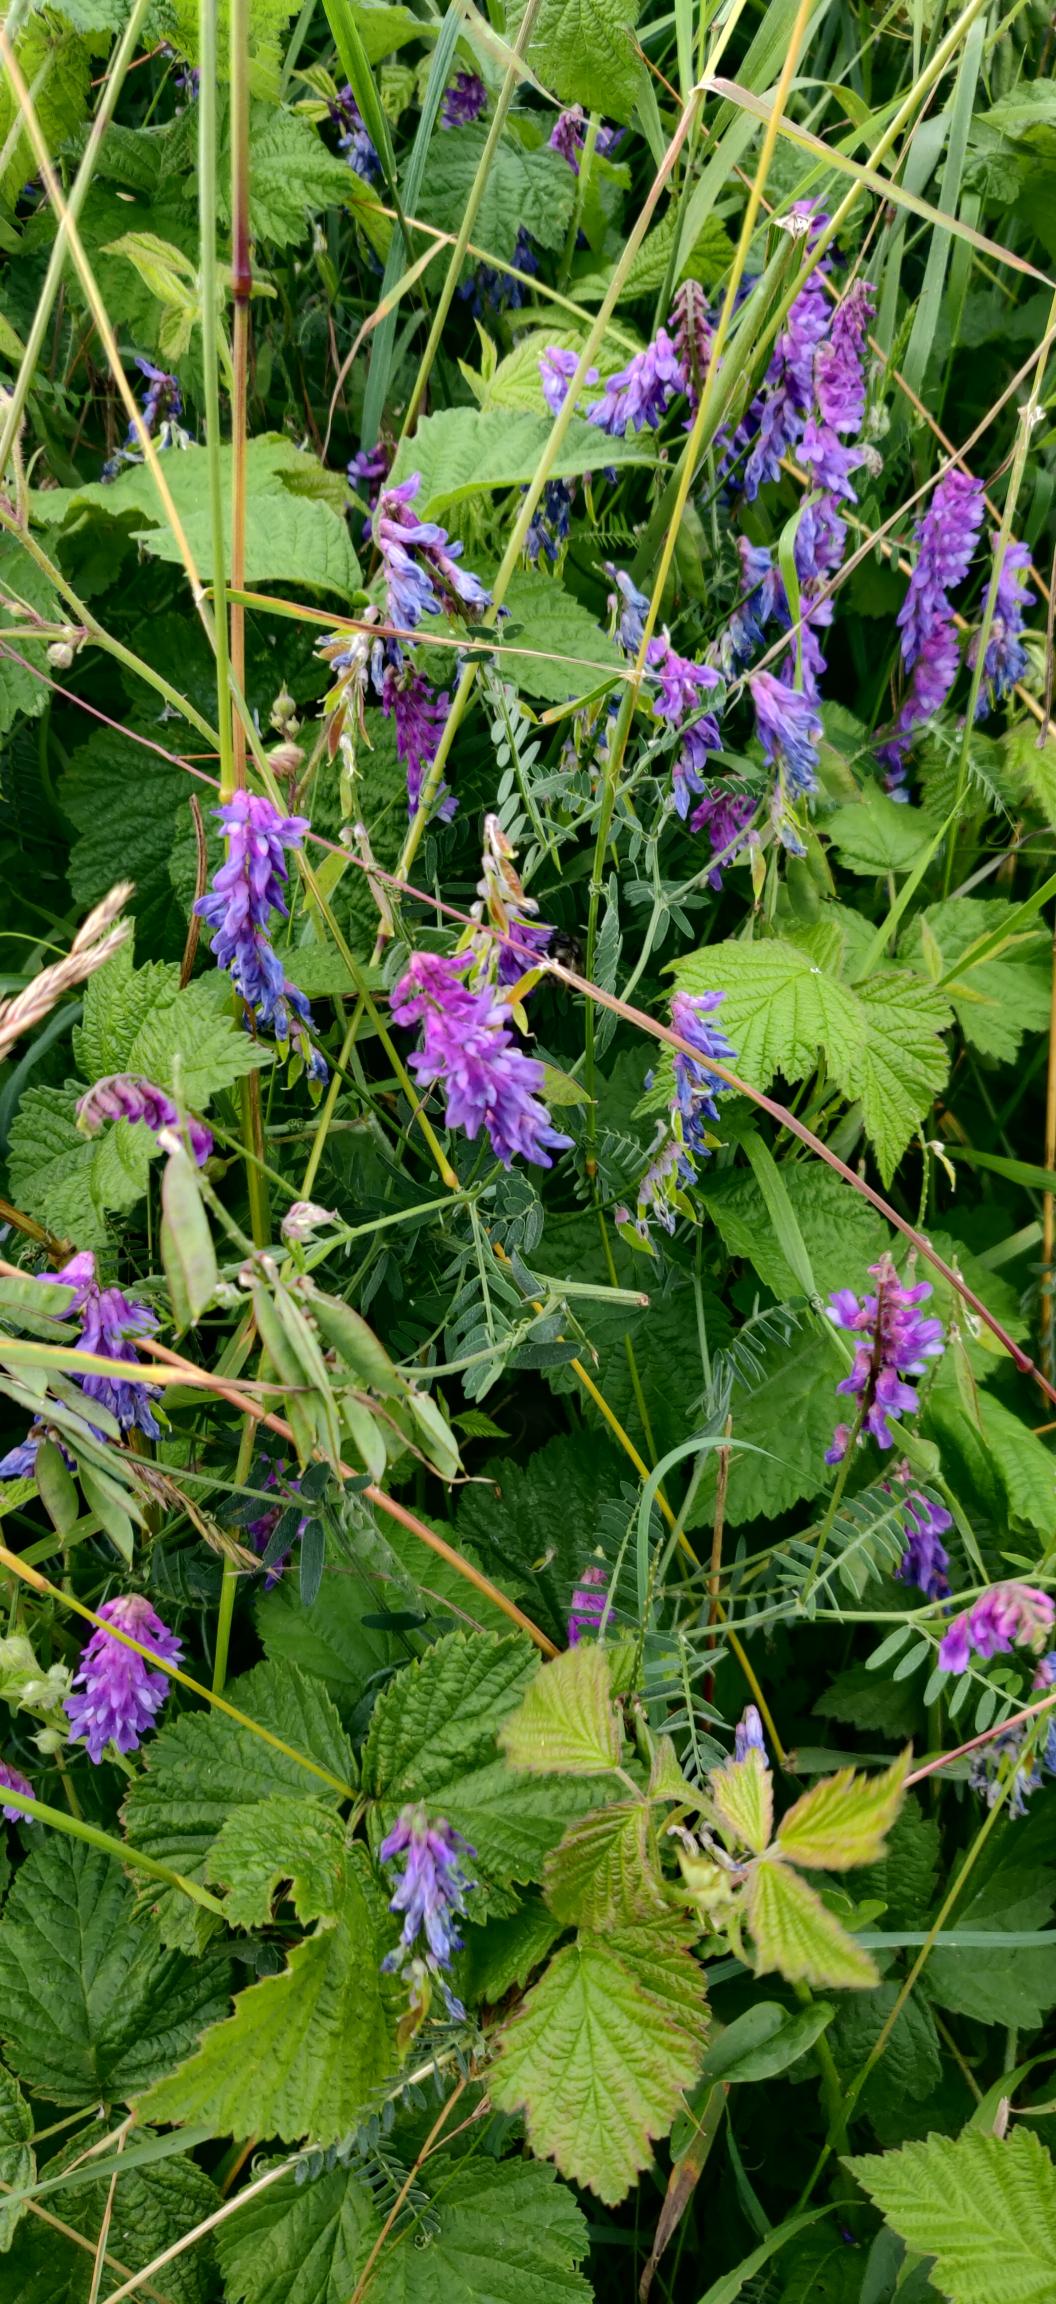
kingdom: Plantae
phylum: Tracheophyta
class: Magnoliopsida
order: Fabales
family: Fabaceae
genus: Vicia
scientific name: Vicia cracca
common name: Muse-vikke
